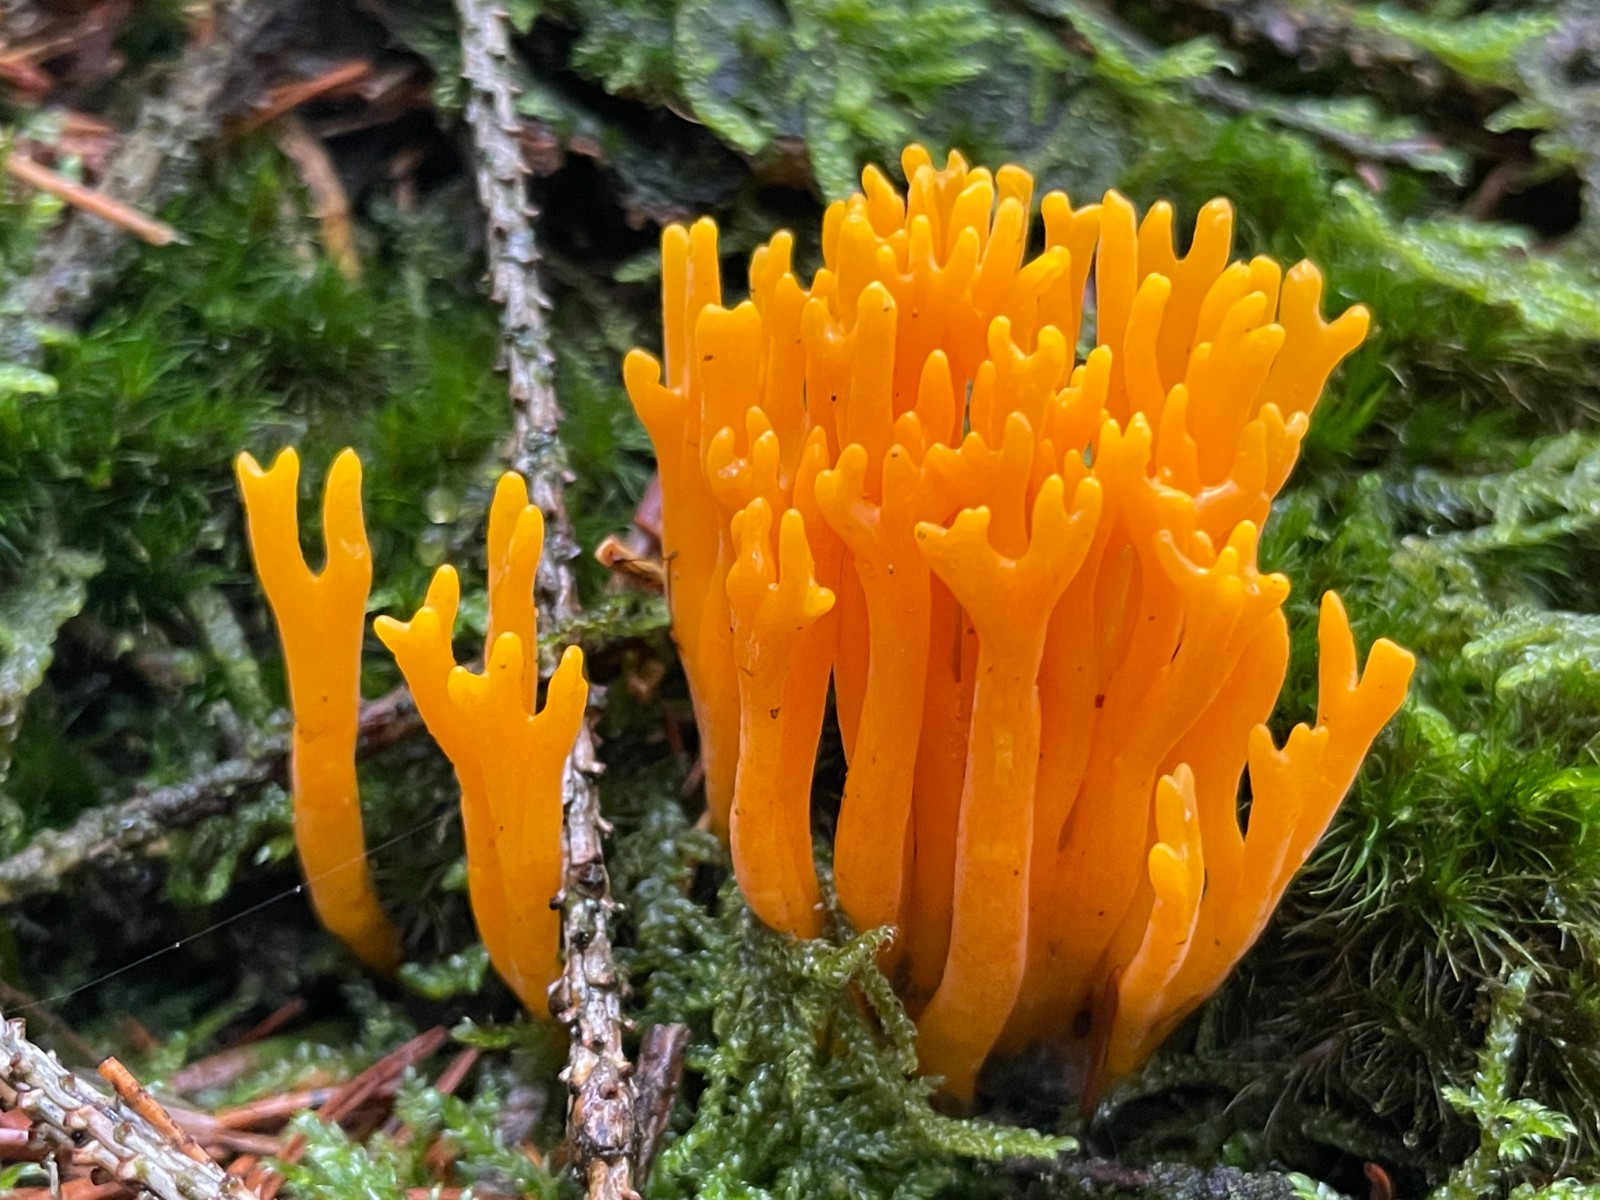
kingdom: Fungi
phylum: Basidiomycota
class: Dacrymycetes
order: Dacrymycetales
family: Dacrymycetaceae
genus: Calocera
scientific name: Calocera viscosa
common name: almindelig guldgaffel
